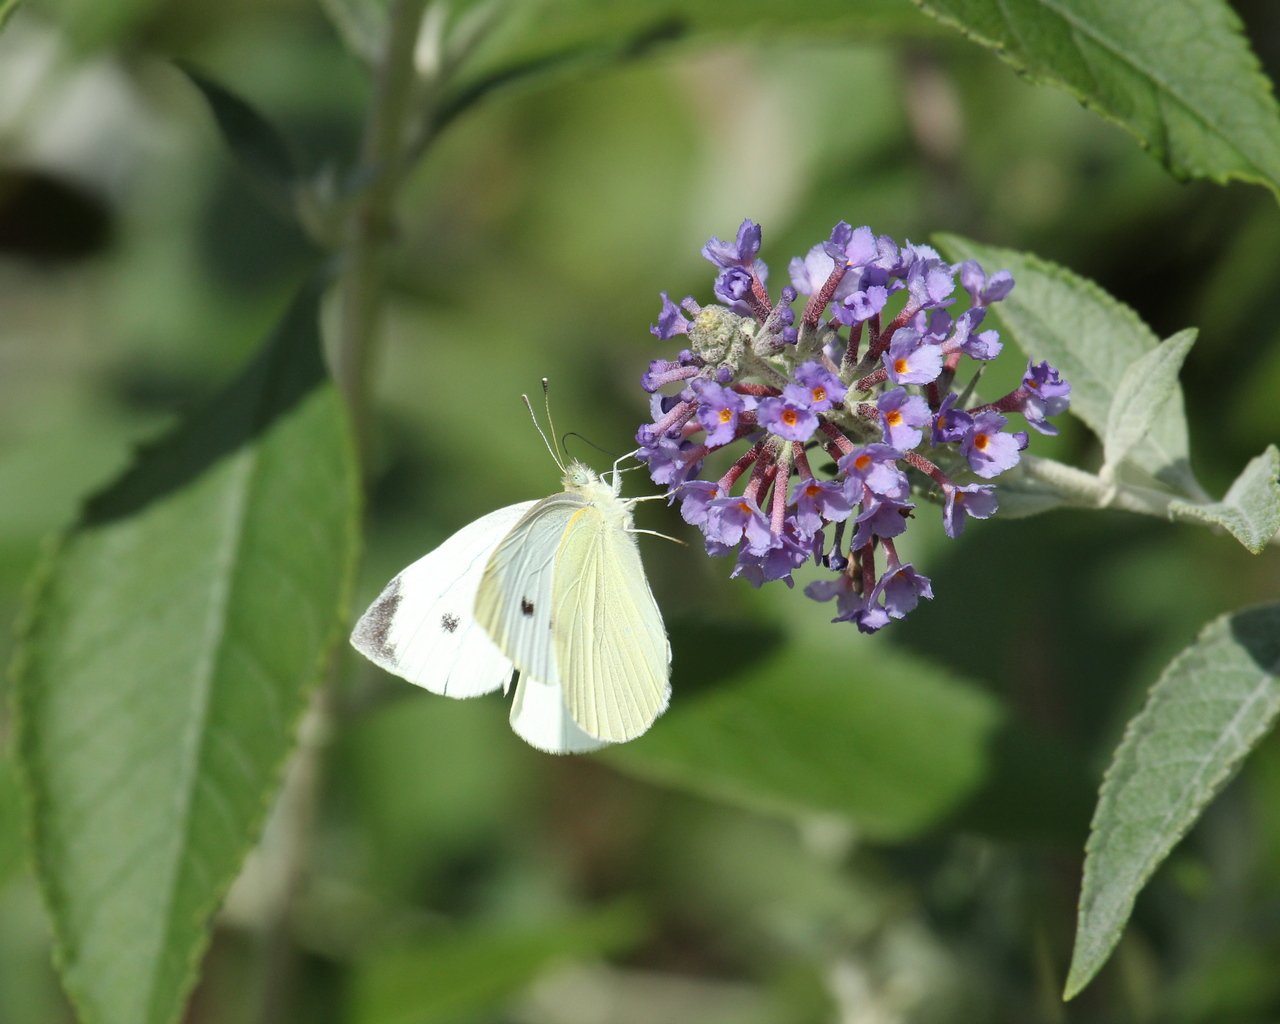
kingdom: Animalia
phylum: Arthropoda
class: Insecta
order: Lepidoptera
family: Pieridae
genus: Pieris
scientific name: Pieris rapae
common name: Cabbage White
